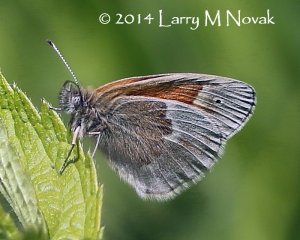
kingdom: Animalia
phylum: Arthropoda
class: Insecta
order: Lepidoptera
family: Nymphalidae
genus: Coenonympha
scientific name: Coenonympha tullia
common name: Large Heath
